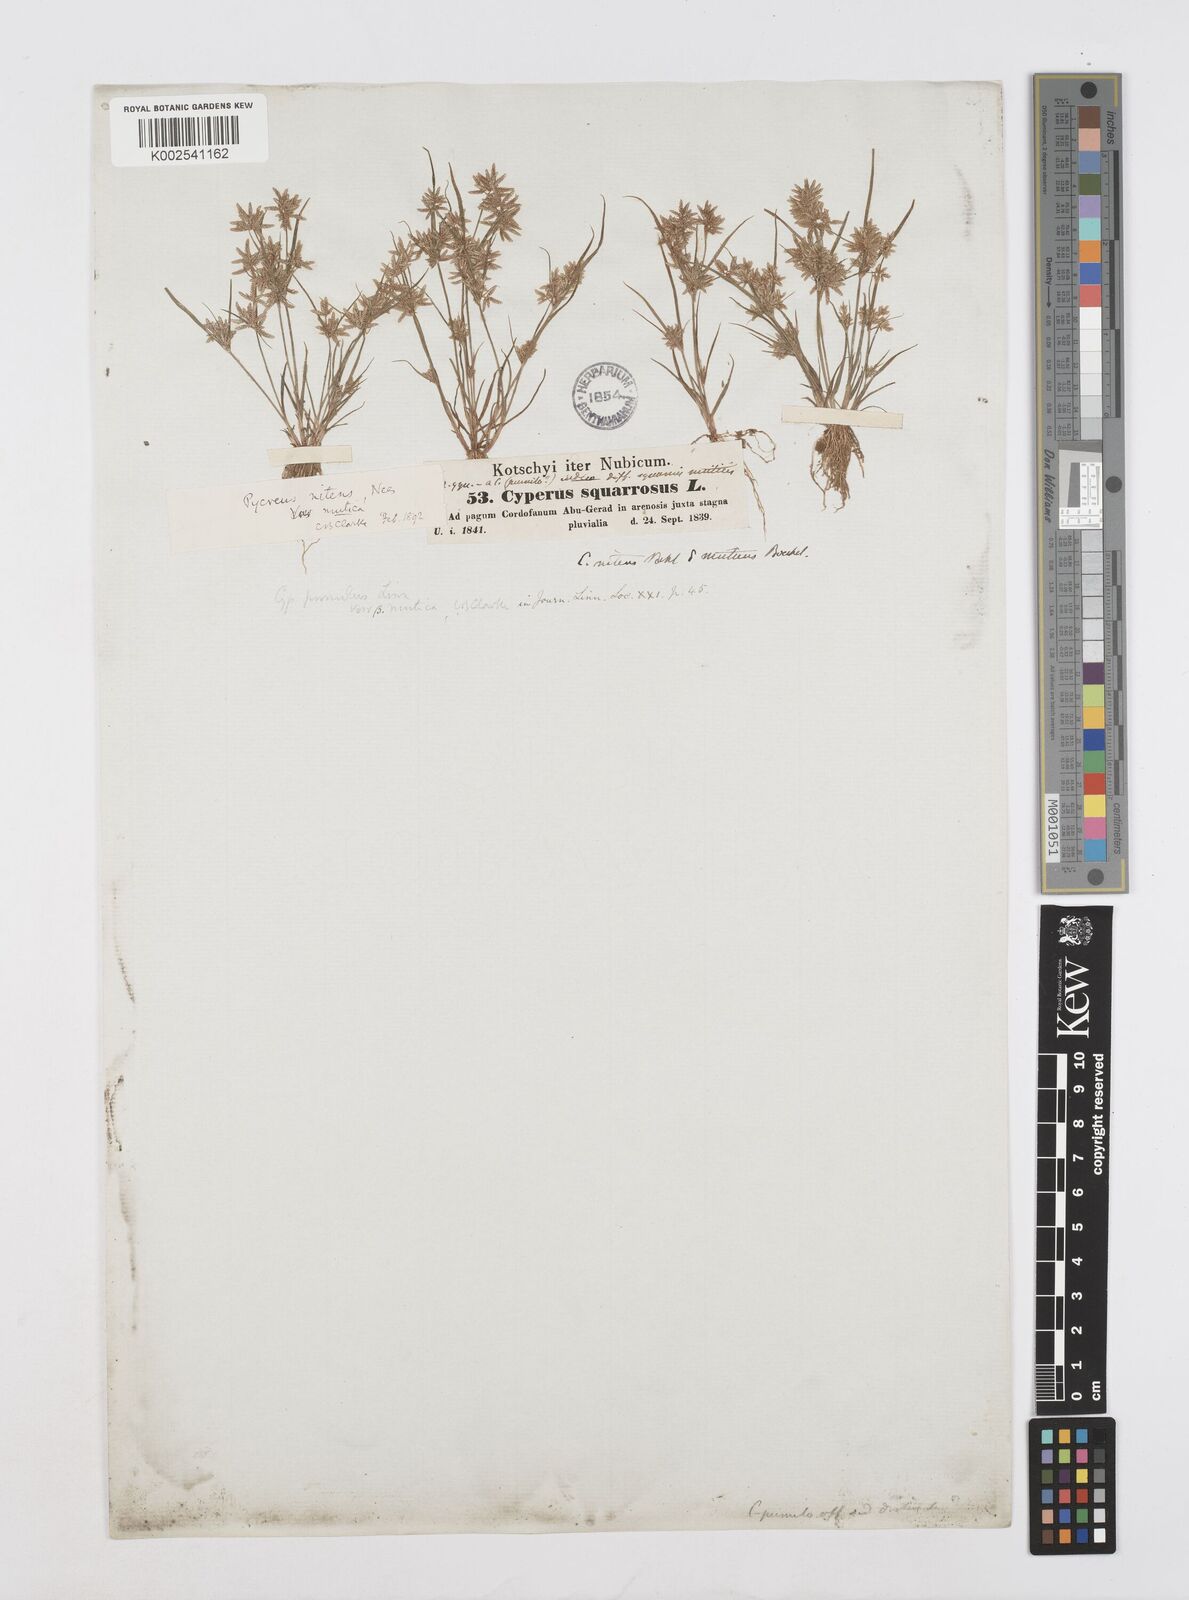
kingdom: Plantae
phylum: Tracheophyta
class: Liliopsida
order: Poales
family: Cyperaceae
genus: Cyperus
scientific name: Cyperus pumilus
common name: Low flatsedge
